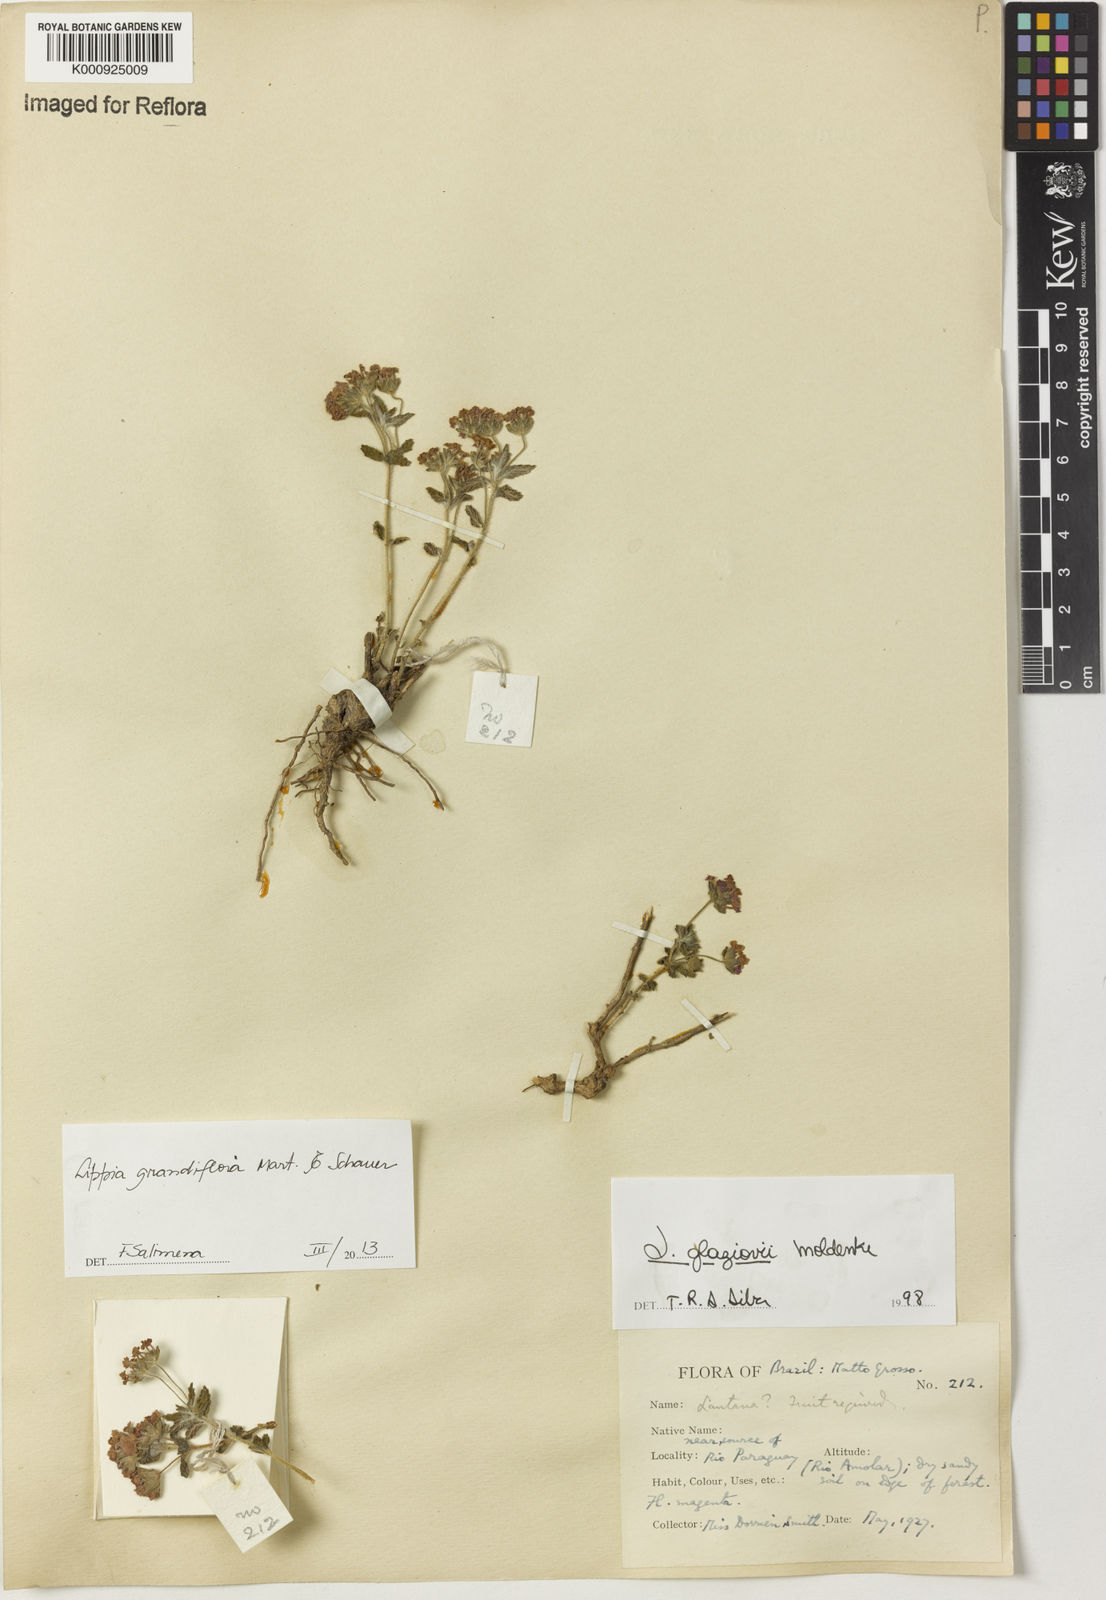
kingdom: Plantae
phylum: Tracheophyta
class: Magnoliopsida
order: Lamiales
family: Verbenaceae
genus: Lippia
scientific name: Lippia grandiflora
